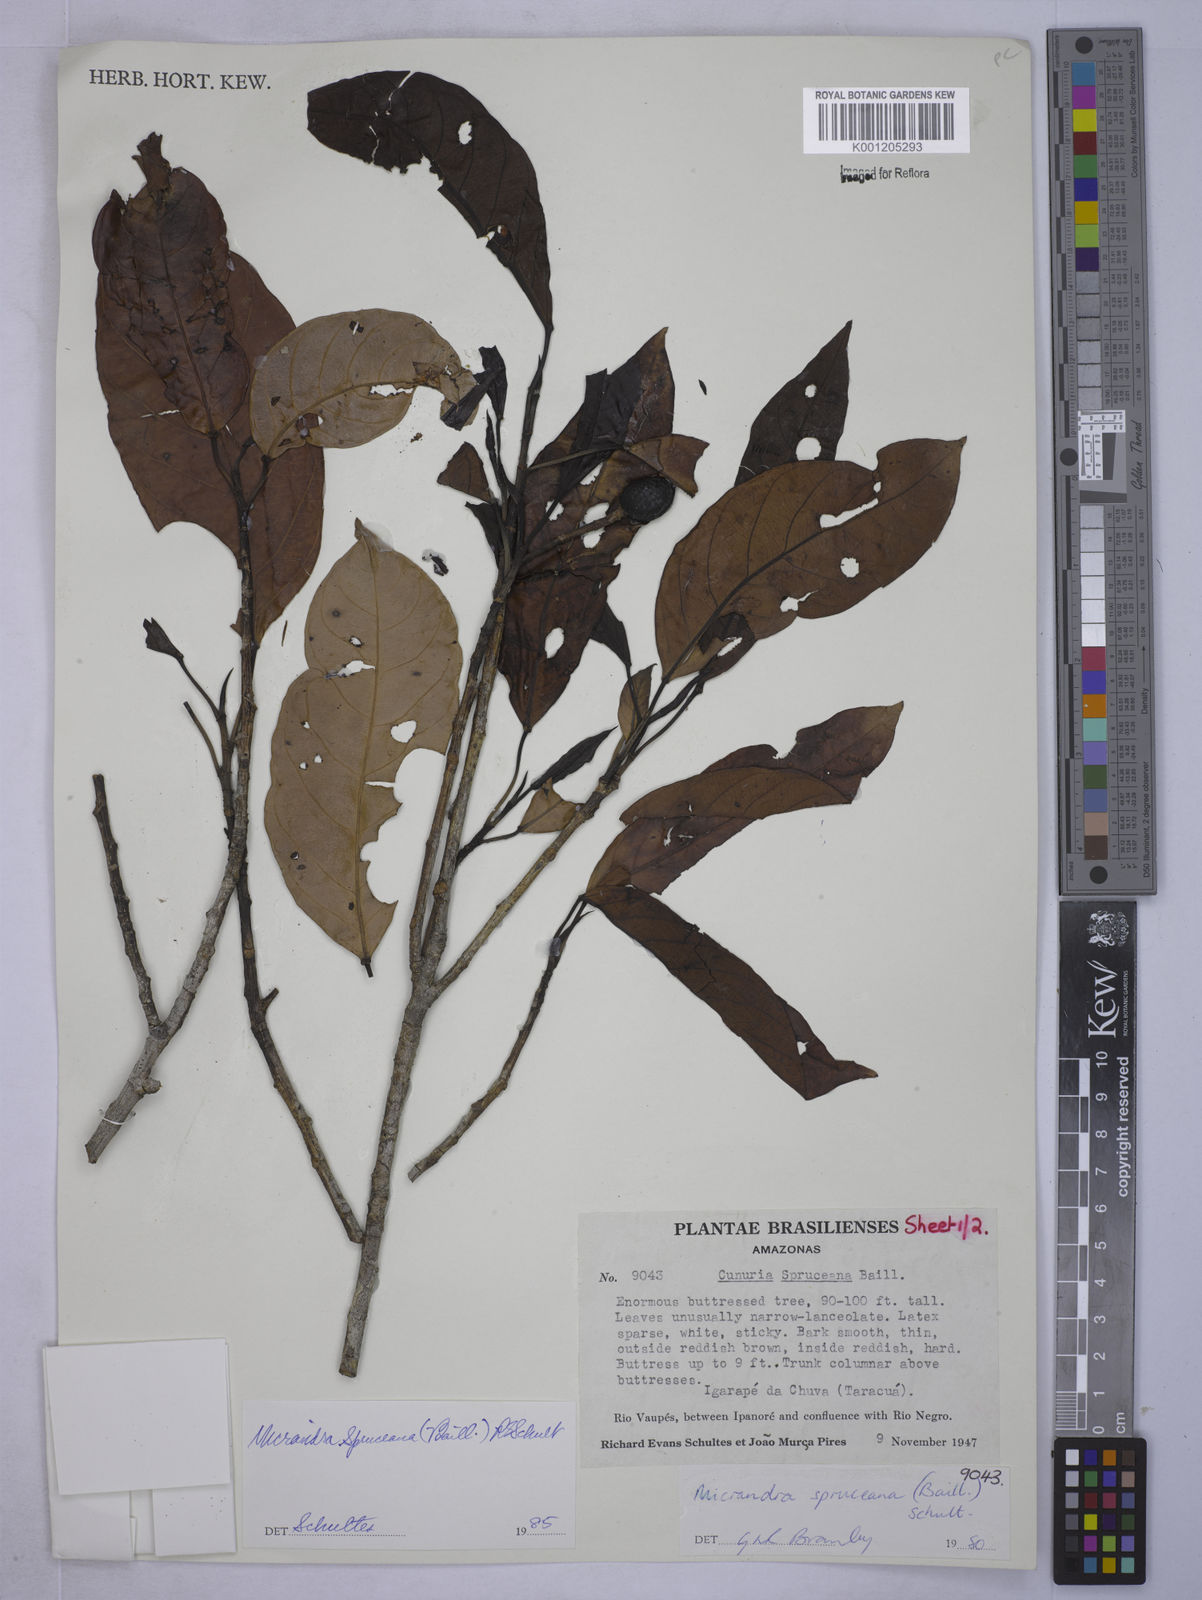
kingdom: Plantae
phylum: Tracheophyta
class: Magnoliopsida
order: Malpighiales
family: Euphorbiaceae
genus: Micrandra
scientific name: Micrandra spruceana
